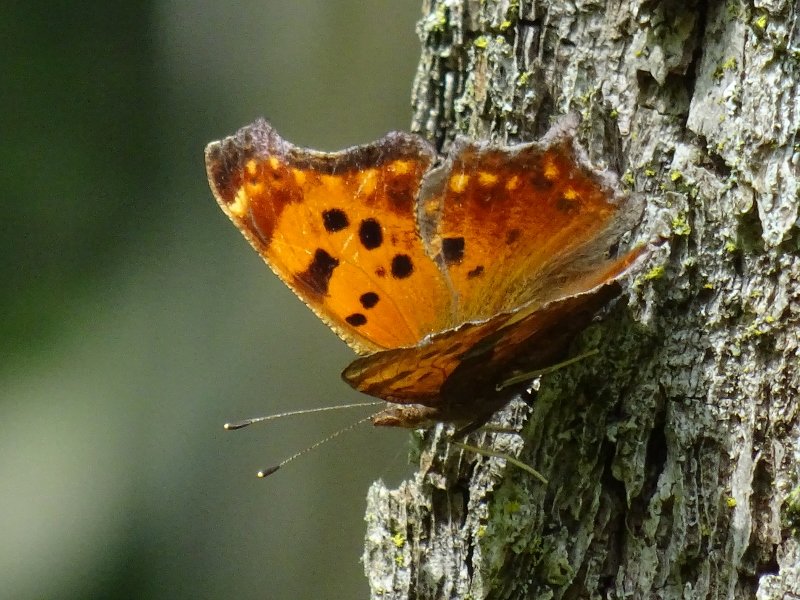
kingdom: Animalia
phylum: Arthropoda
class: Insecta
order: Lepidoptera
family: Nymphalidae
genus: Polygonia
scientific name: Polygonia comma
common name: Eastern Comma
